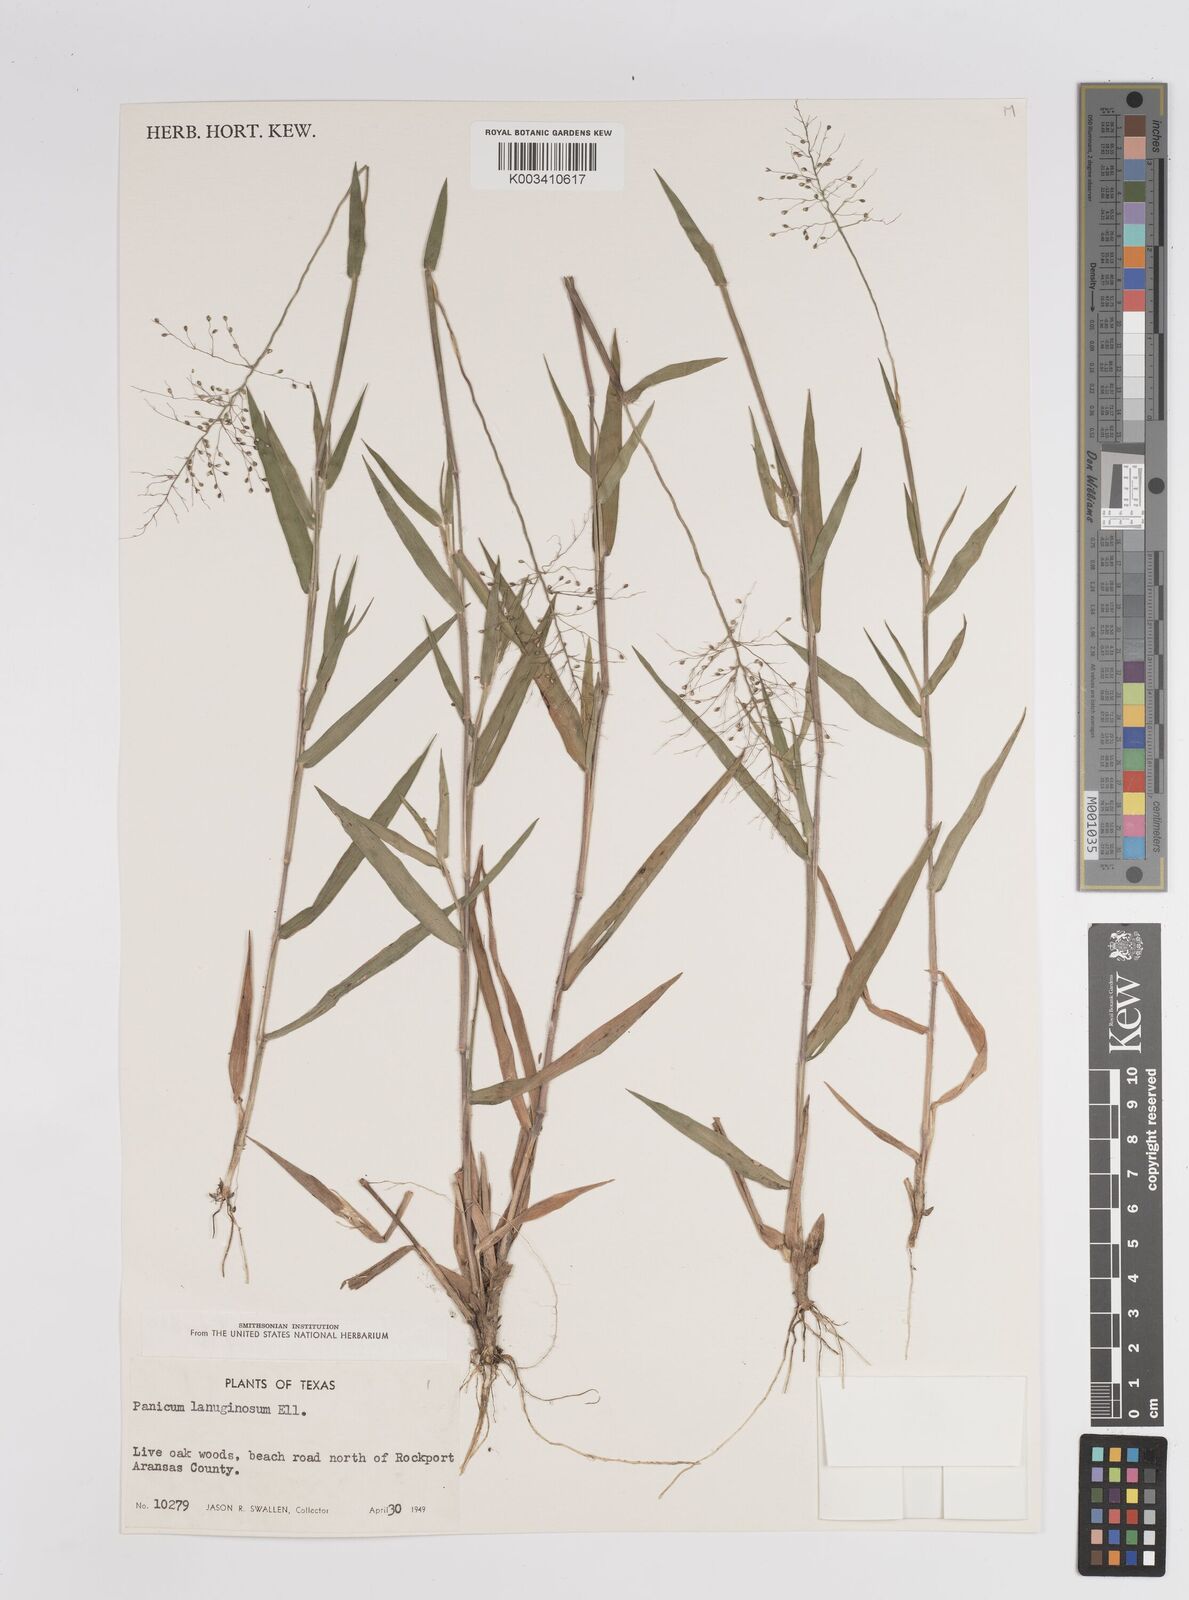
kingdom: Plantae
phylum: Tracheophyta
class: Liliopsida
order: Poales
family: Poaceae
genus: Dichanthelium
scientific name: Dichanthelium lanuginosum
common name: Woolly panicgrass
